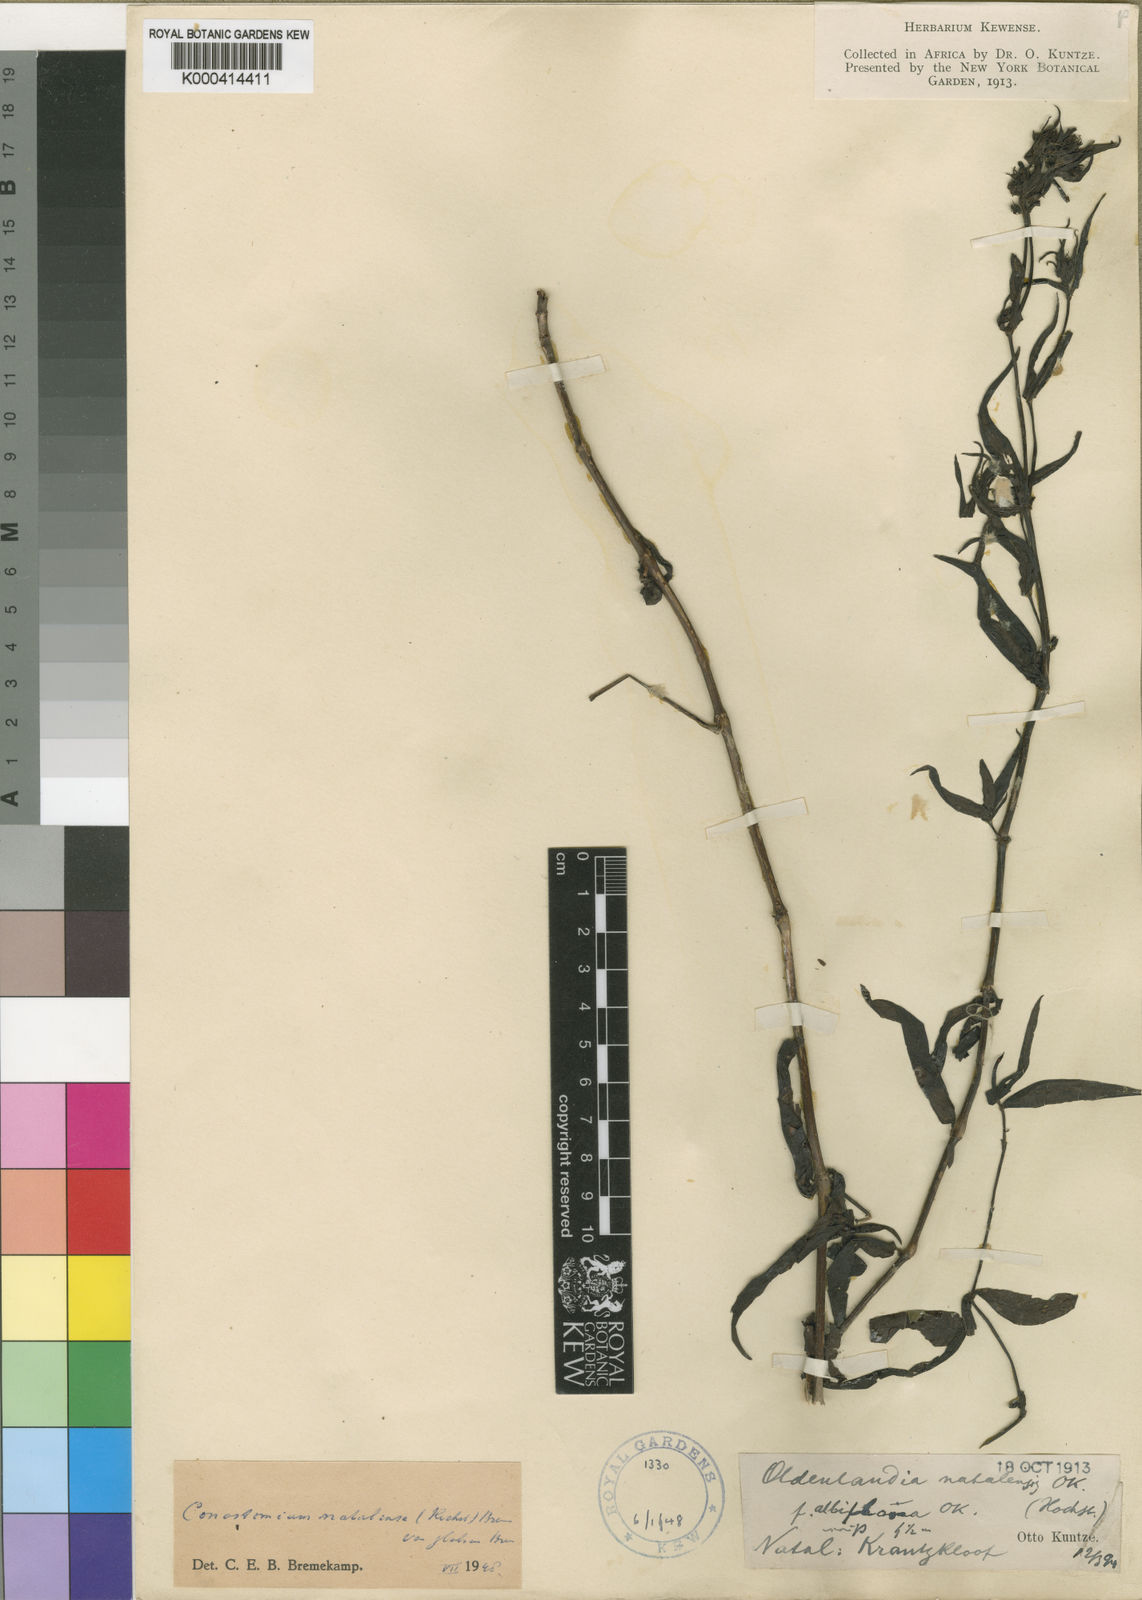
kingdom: Plantae
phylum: Tracheophyta
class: Magnoliopsida
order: Gentianales
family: Rubiaceae
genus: Conostomium
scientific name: Conostomium natalense
